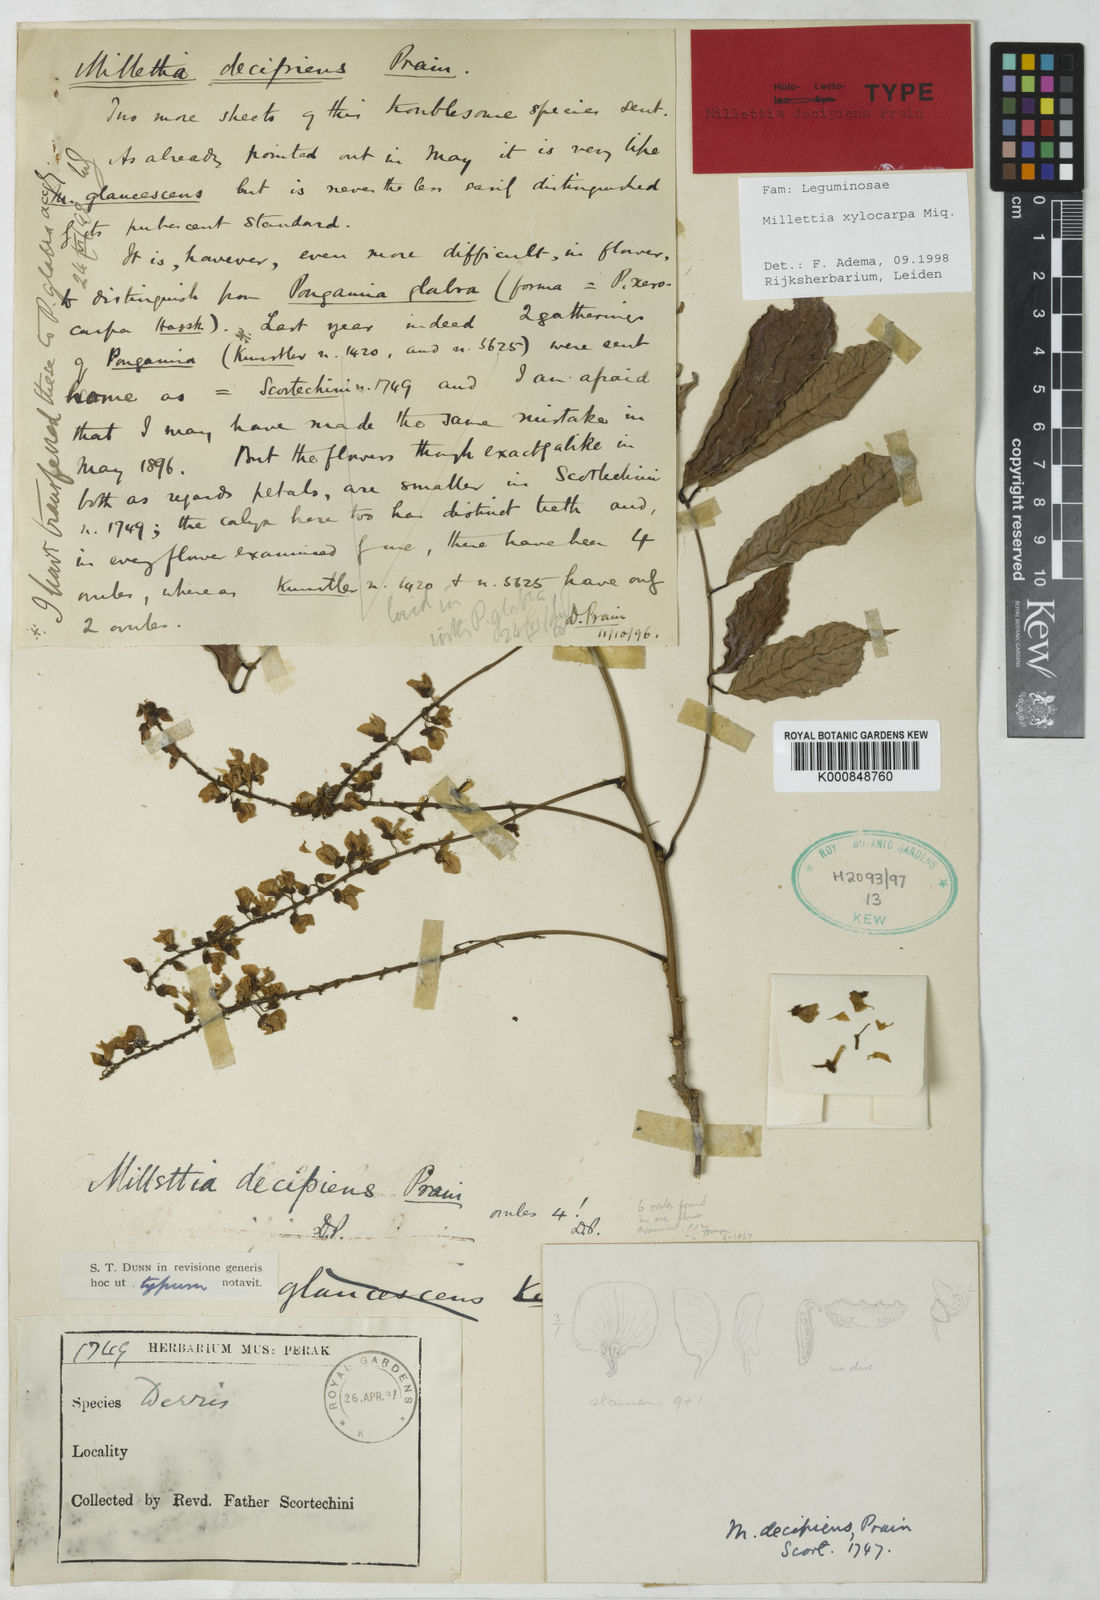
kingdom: Plantae
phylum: Tracheophyta
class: Magnoliopsida
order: Fabales
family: Fabaceae
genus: Millettia
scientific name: Millettia xylocarpa
